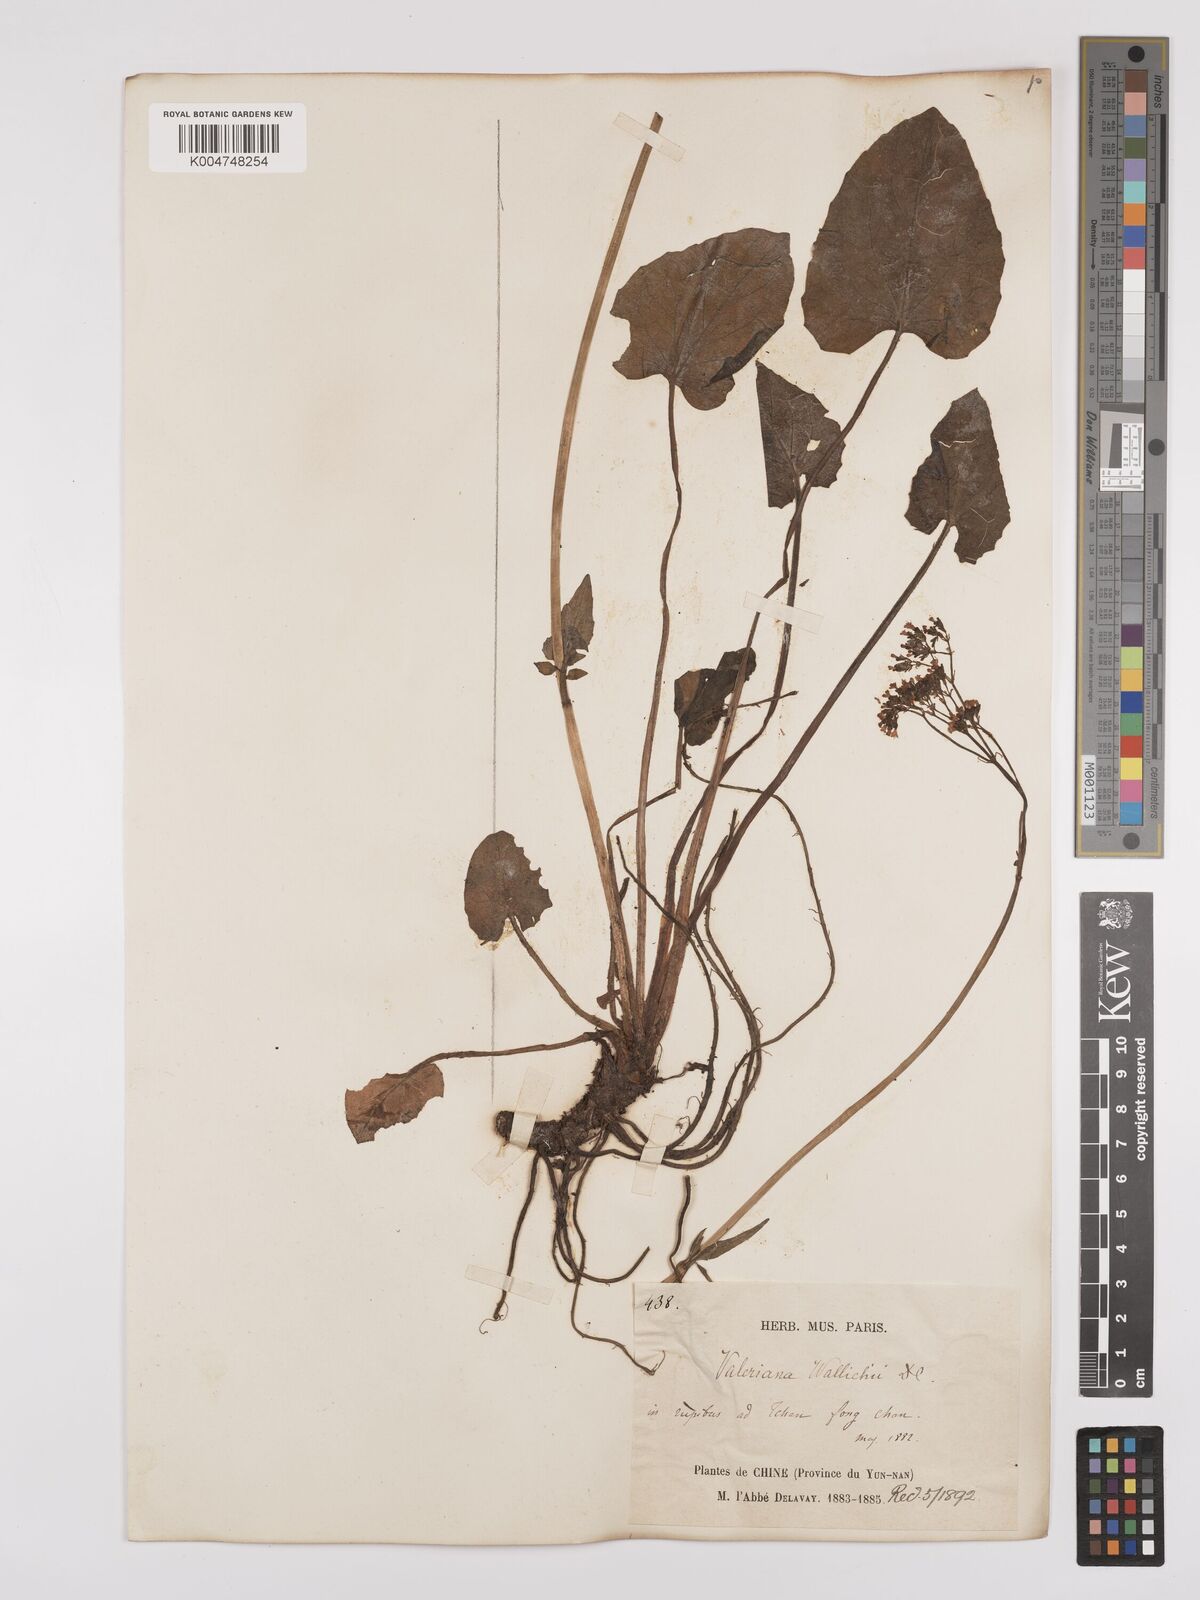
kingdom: Plantae
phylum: Tracheophyta
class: Magnoliopsida
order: Dipsacales
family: Caprifoliaceae
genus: Valeriana
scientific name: Valeriana
